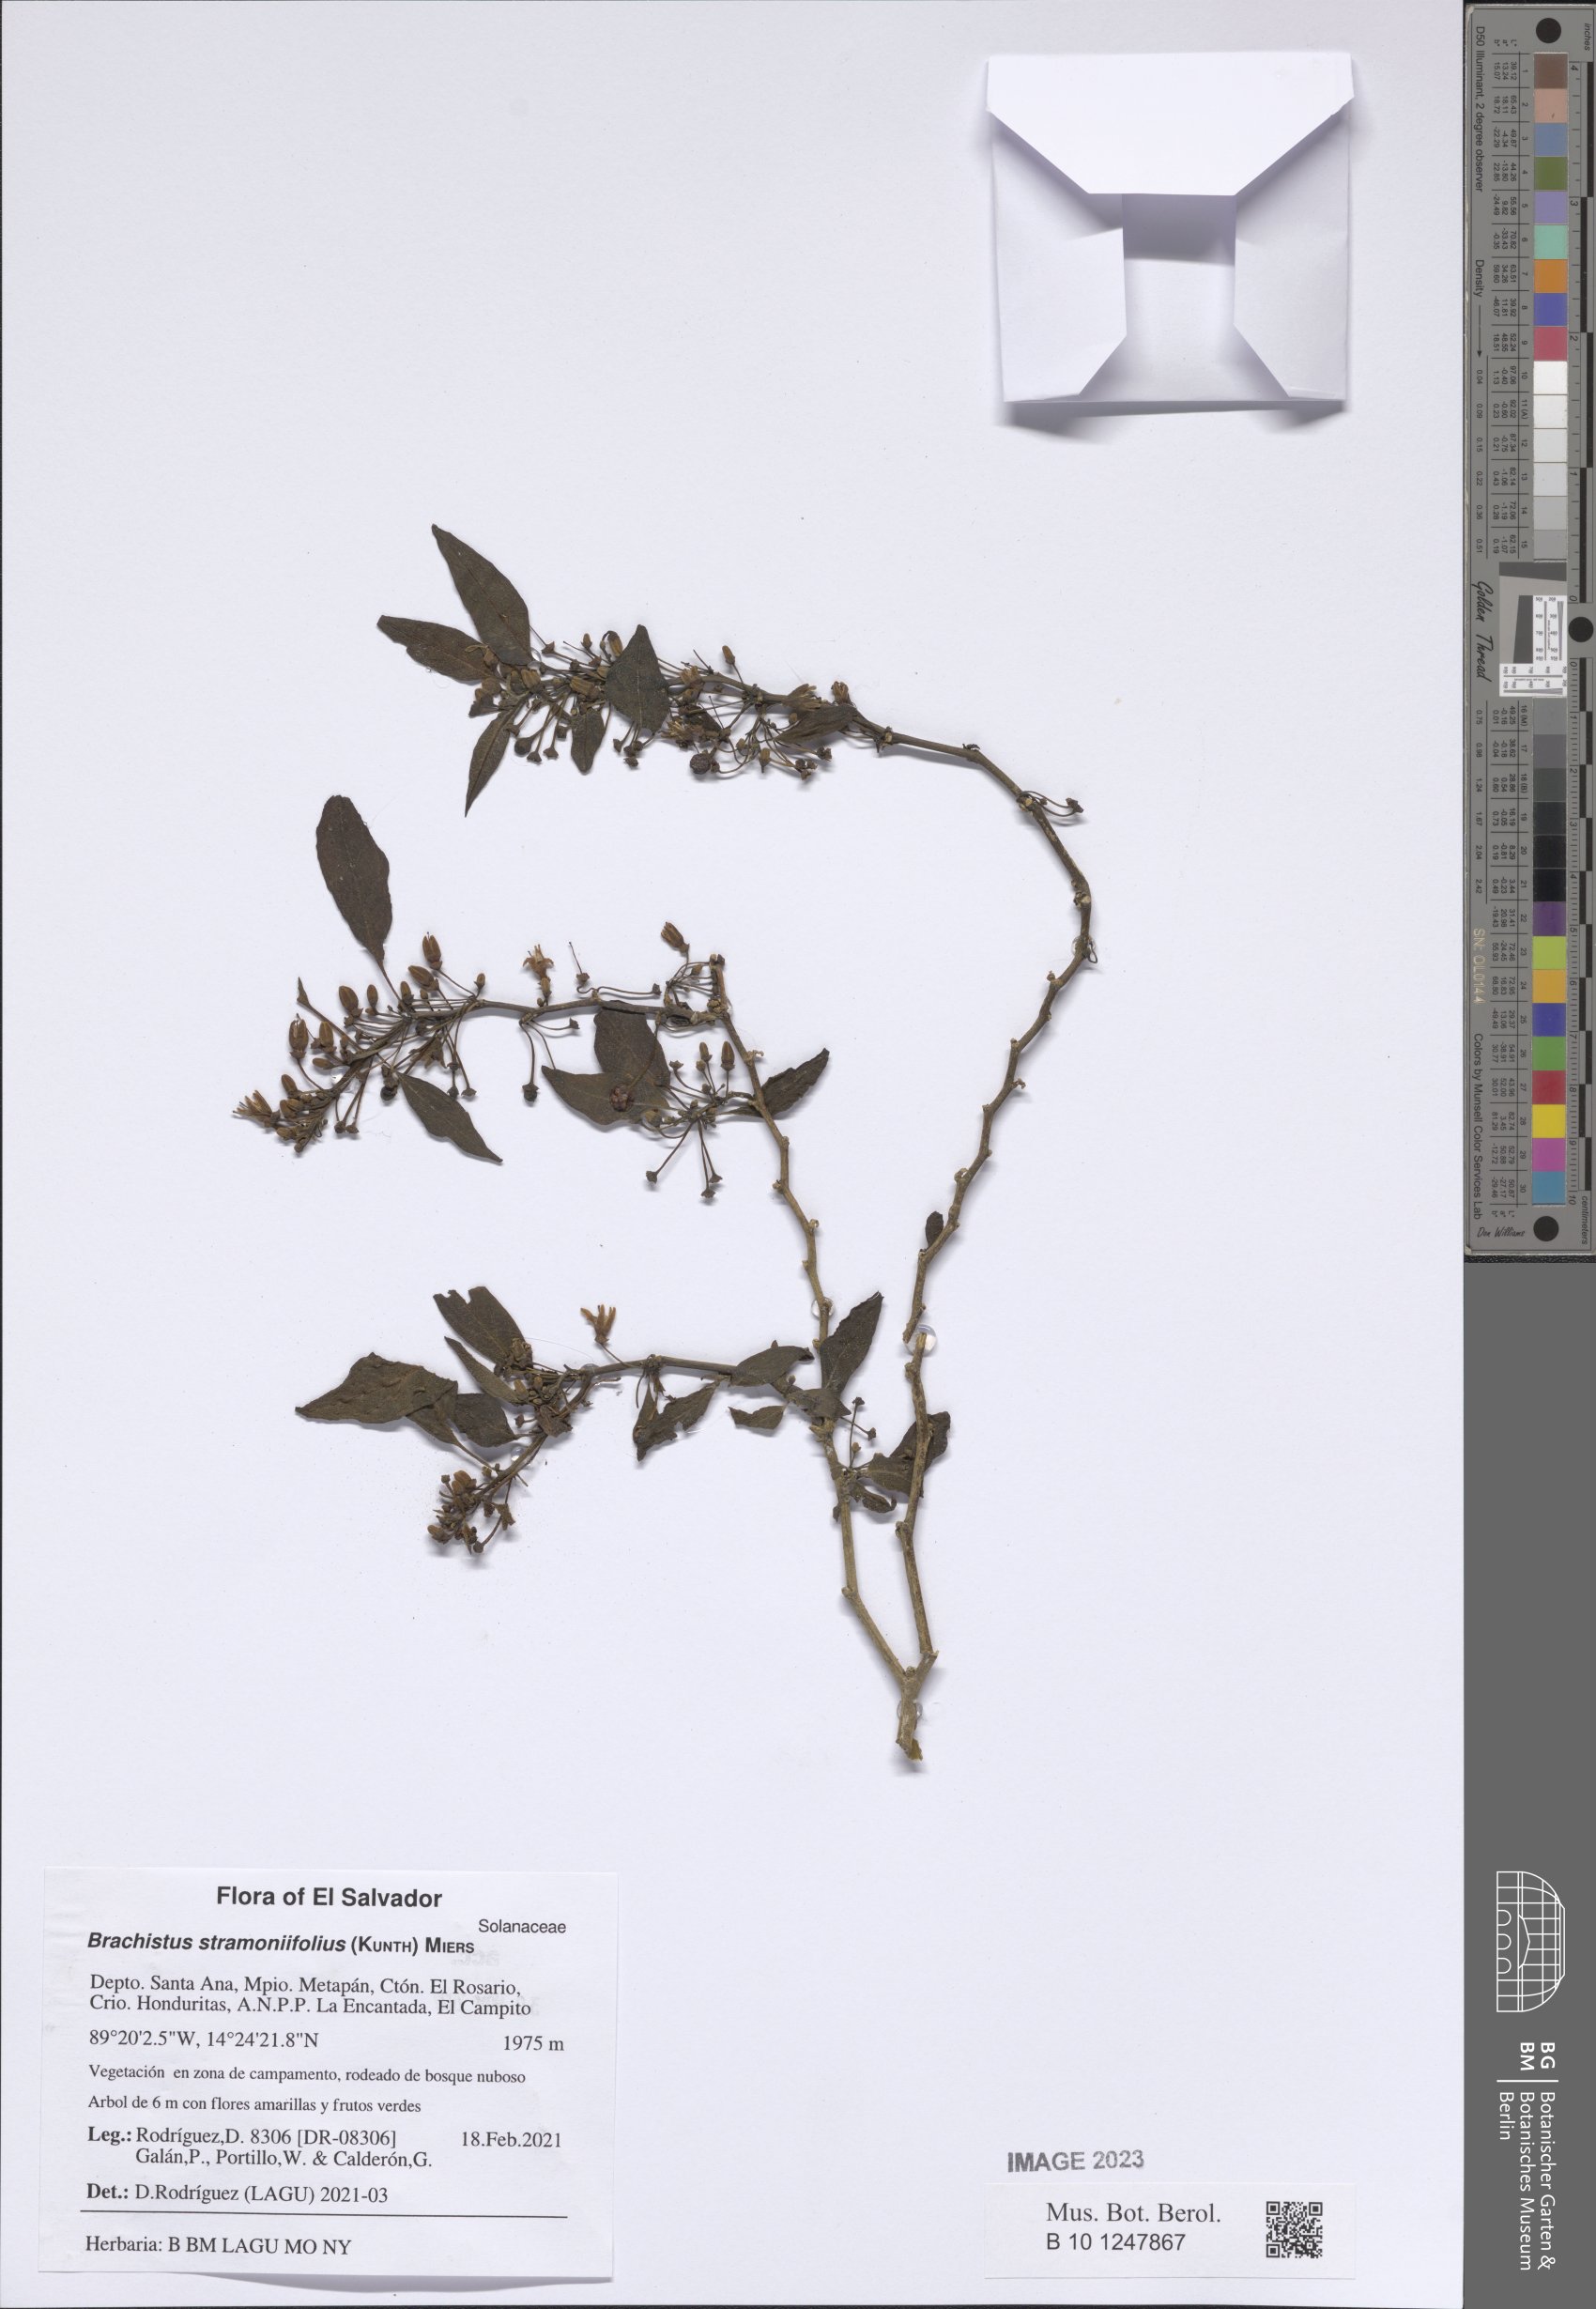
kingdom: Plantae
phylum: Tracheophyta
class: Magnoliopsida
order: Solanales
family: Solanaceae
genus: Brachistus
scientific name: Brachistus stramonifolius
